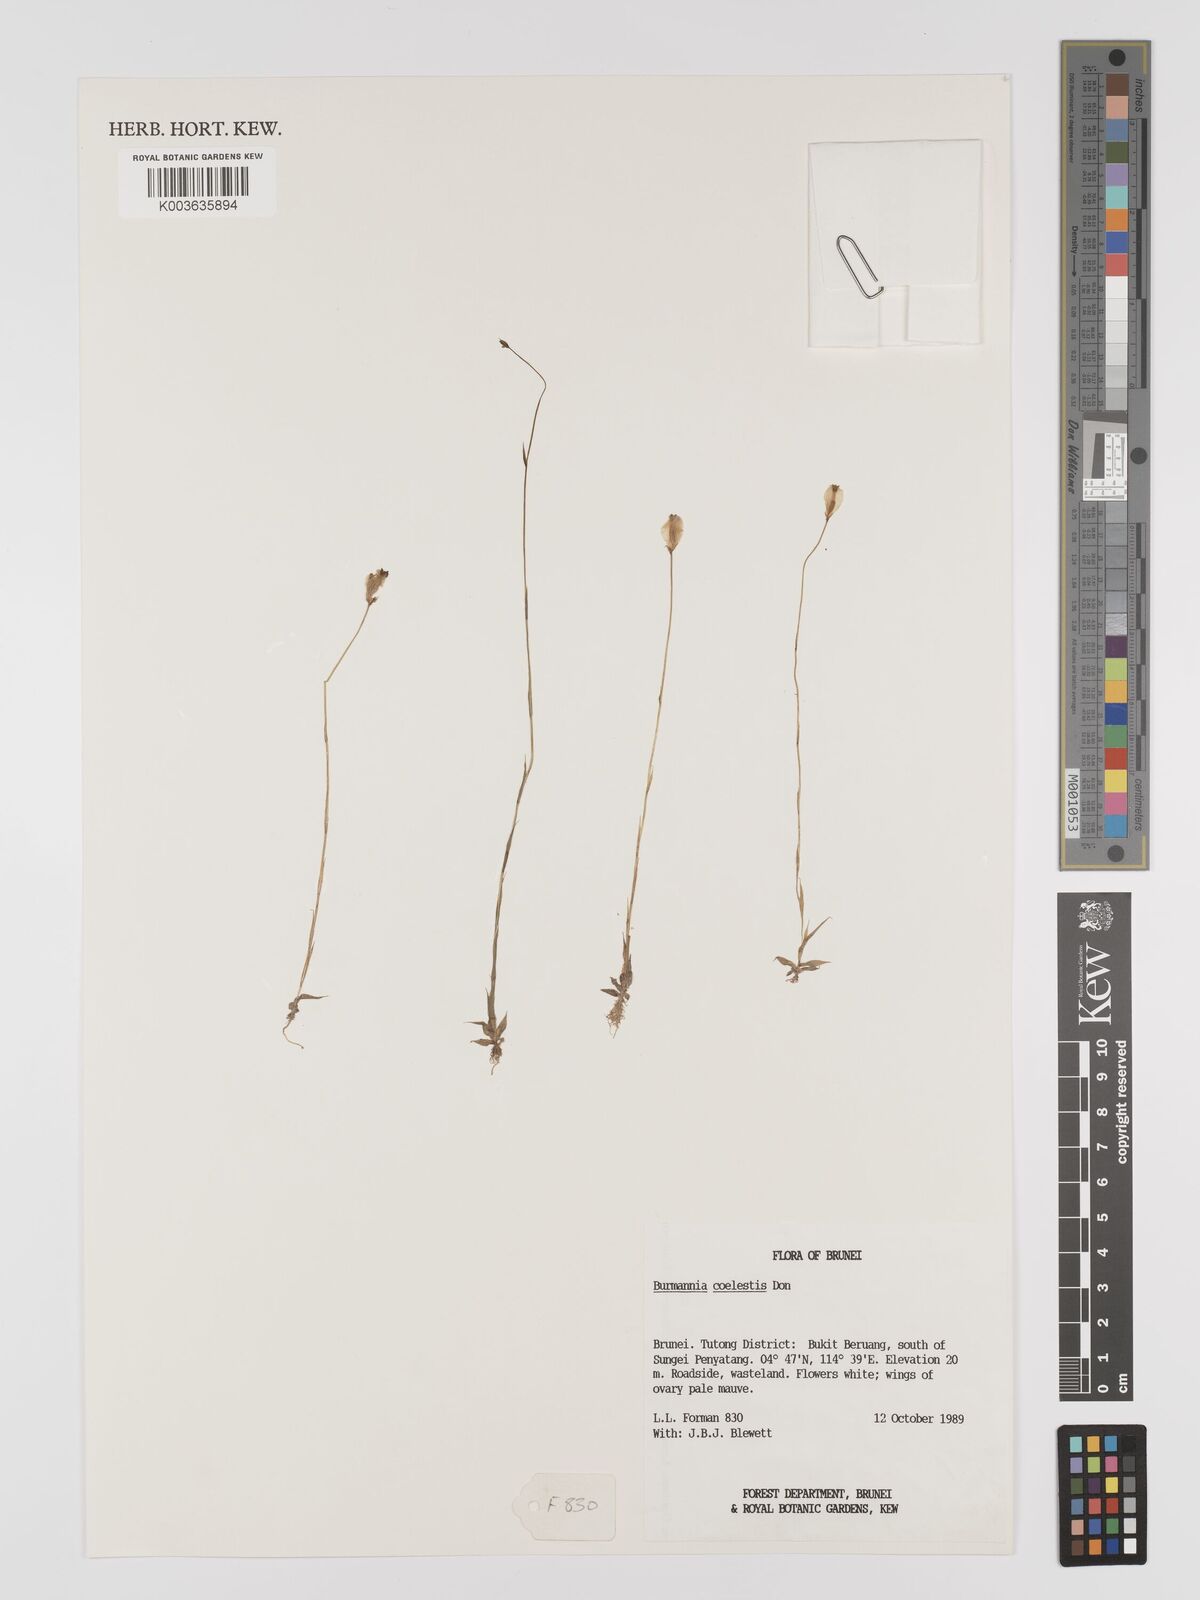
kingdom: Plantae
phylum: Tracheophyta
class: Liliopsida
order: Dioscoreales
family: Burmanniaceae
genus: Burmannia
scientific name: Burmannia coelestis
